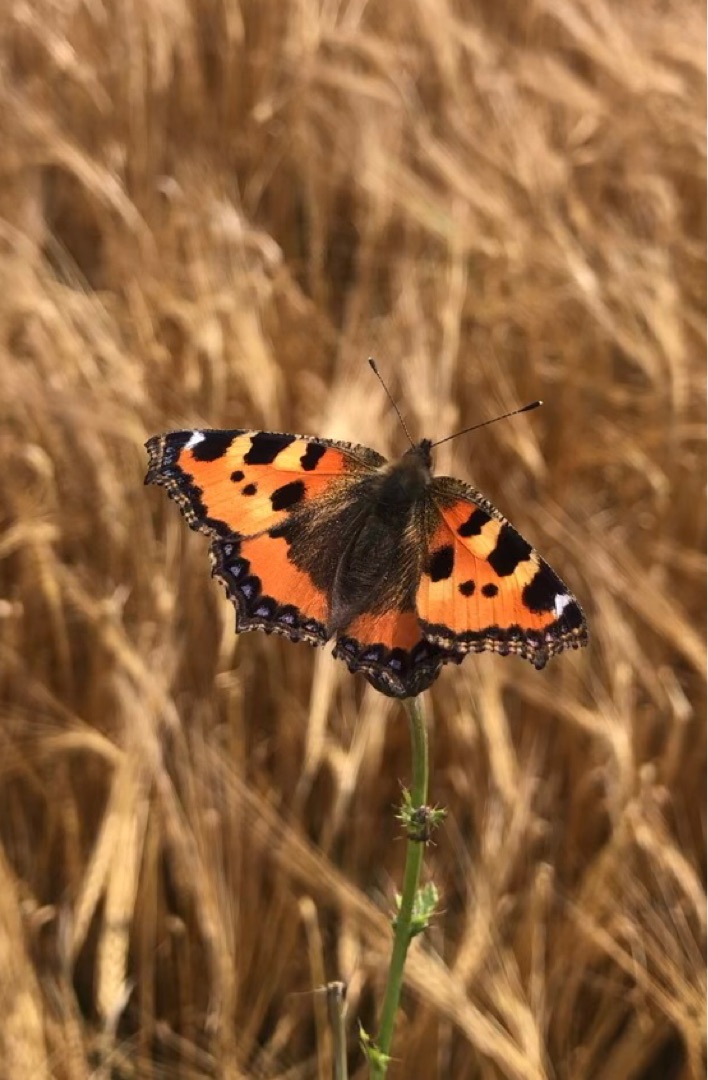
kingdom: Animalia
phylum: Arthropoda
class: Insecta
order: Lepidoptera
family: Nymphalidae
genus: Aglais
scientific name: Aglais urticae
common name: Nældens takvinge
